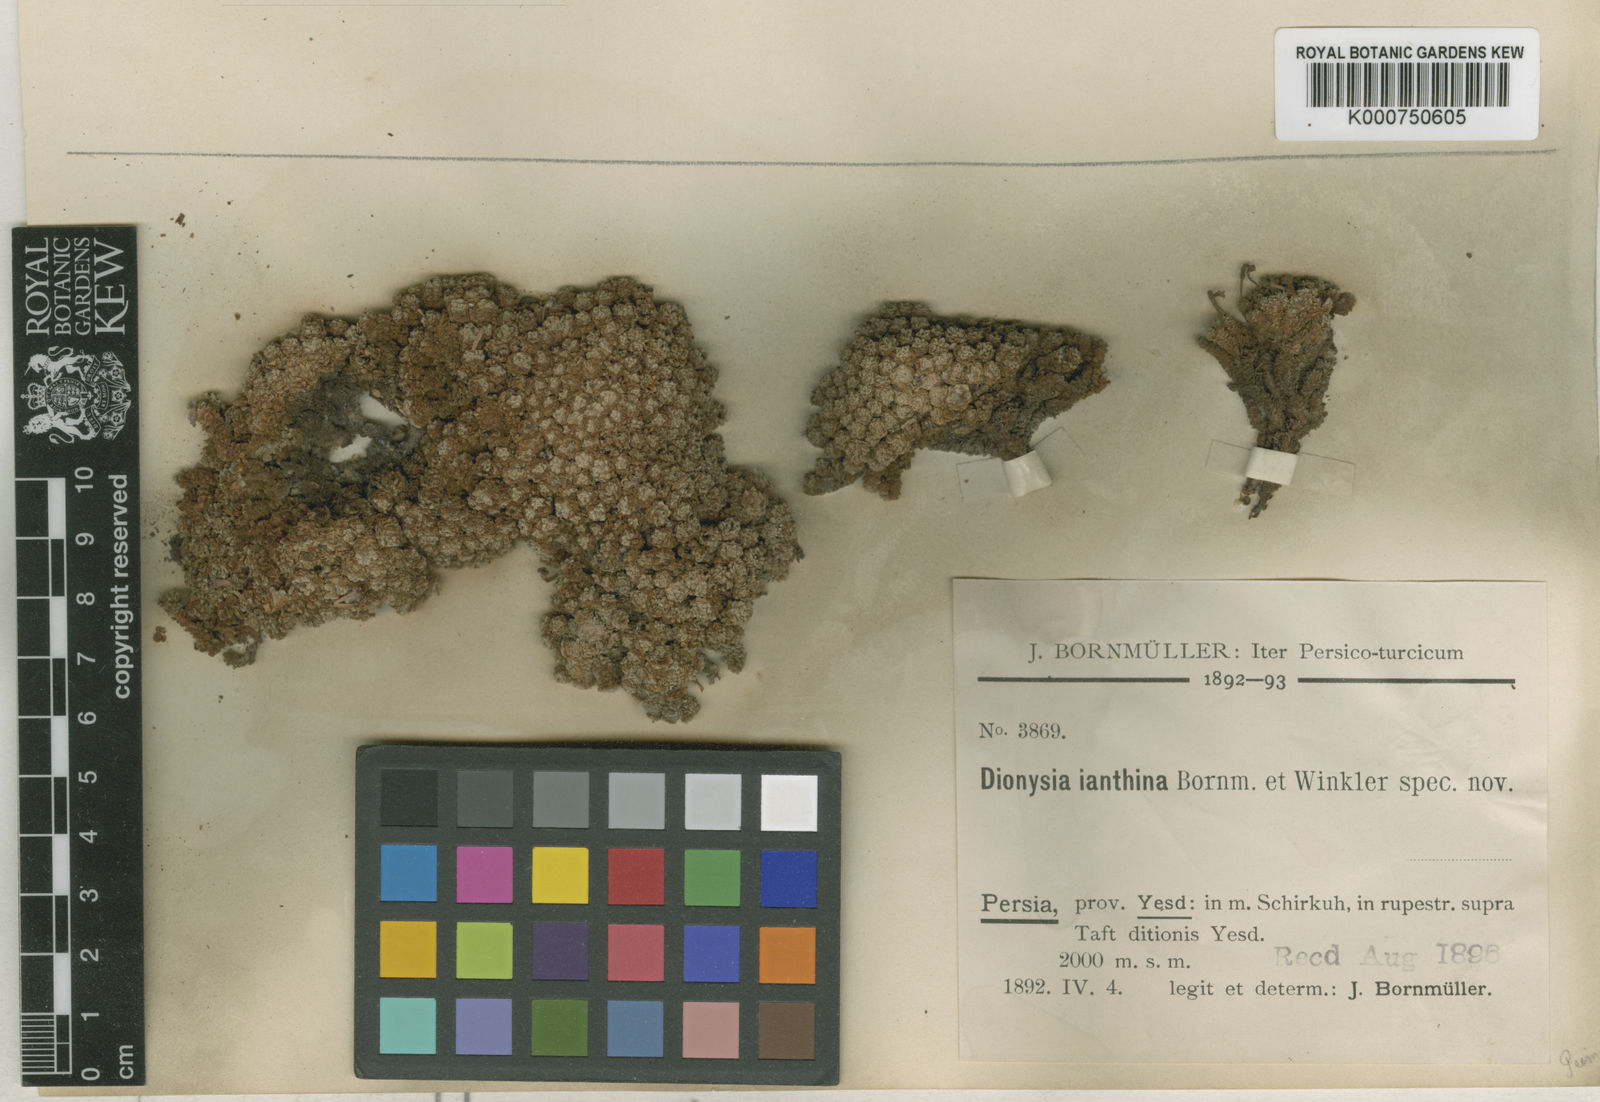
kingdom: Plantae
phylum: Tracheophyta
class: Magnoliopsida
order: Ericales
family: Primulaceae
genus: Dionysia
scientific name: Dionysia janthina
